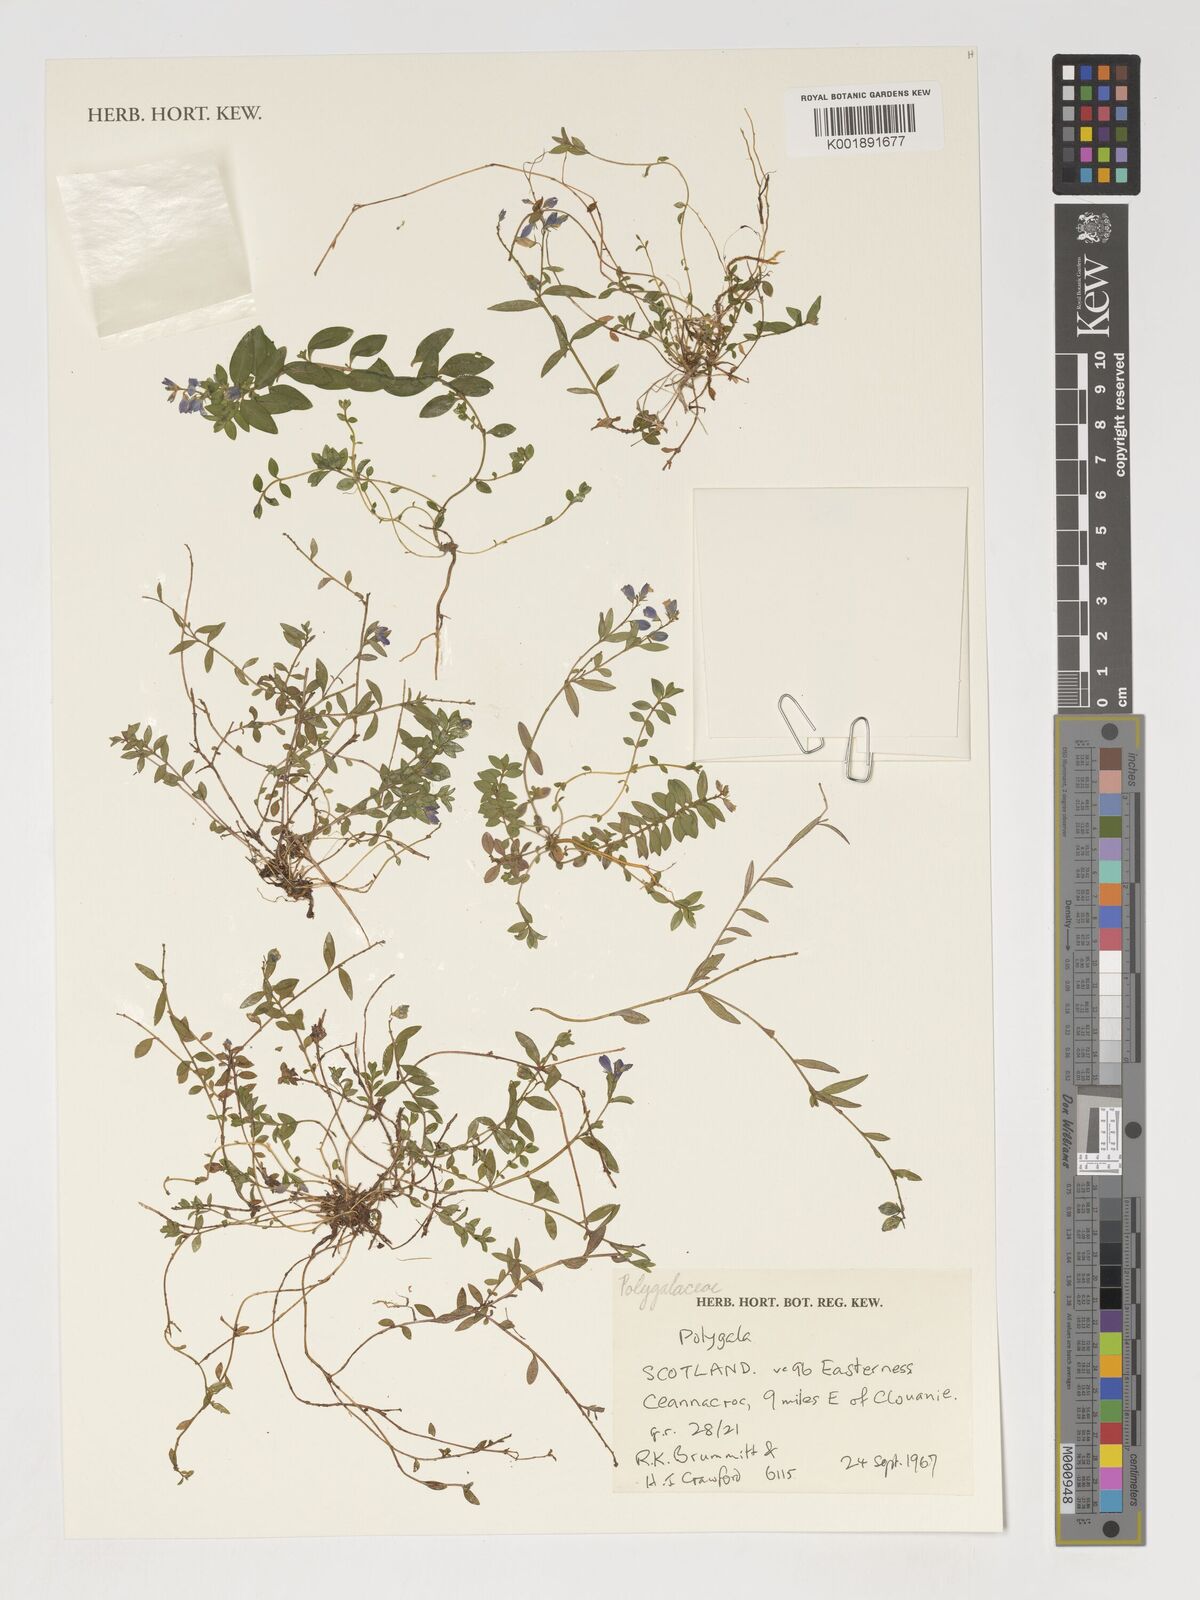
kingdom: Plantae
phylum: Tracheophyta
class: Magnoliopsida
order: Fabales
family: Polygalaceae
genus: Polygala
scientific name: Polygala
